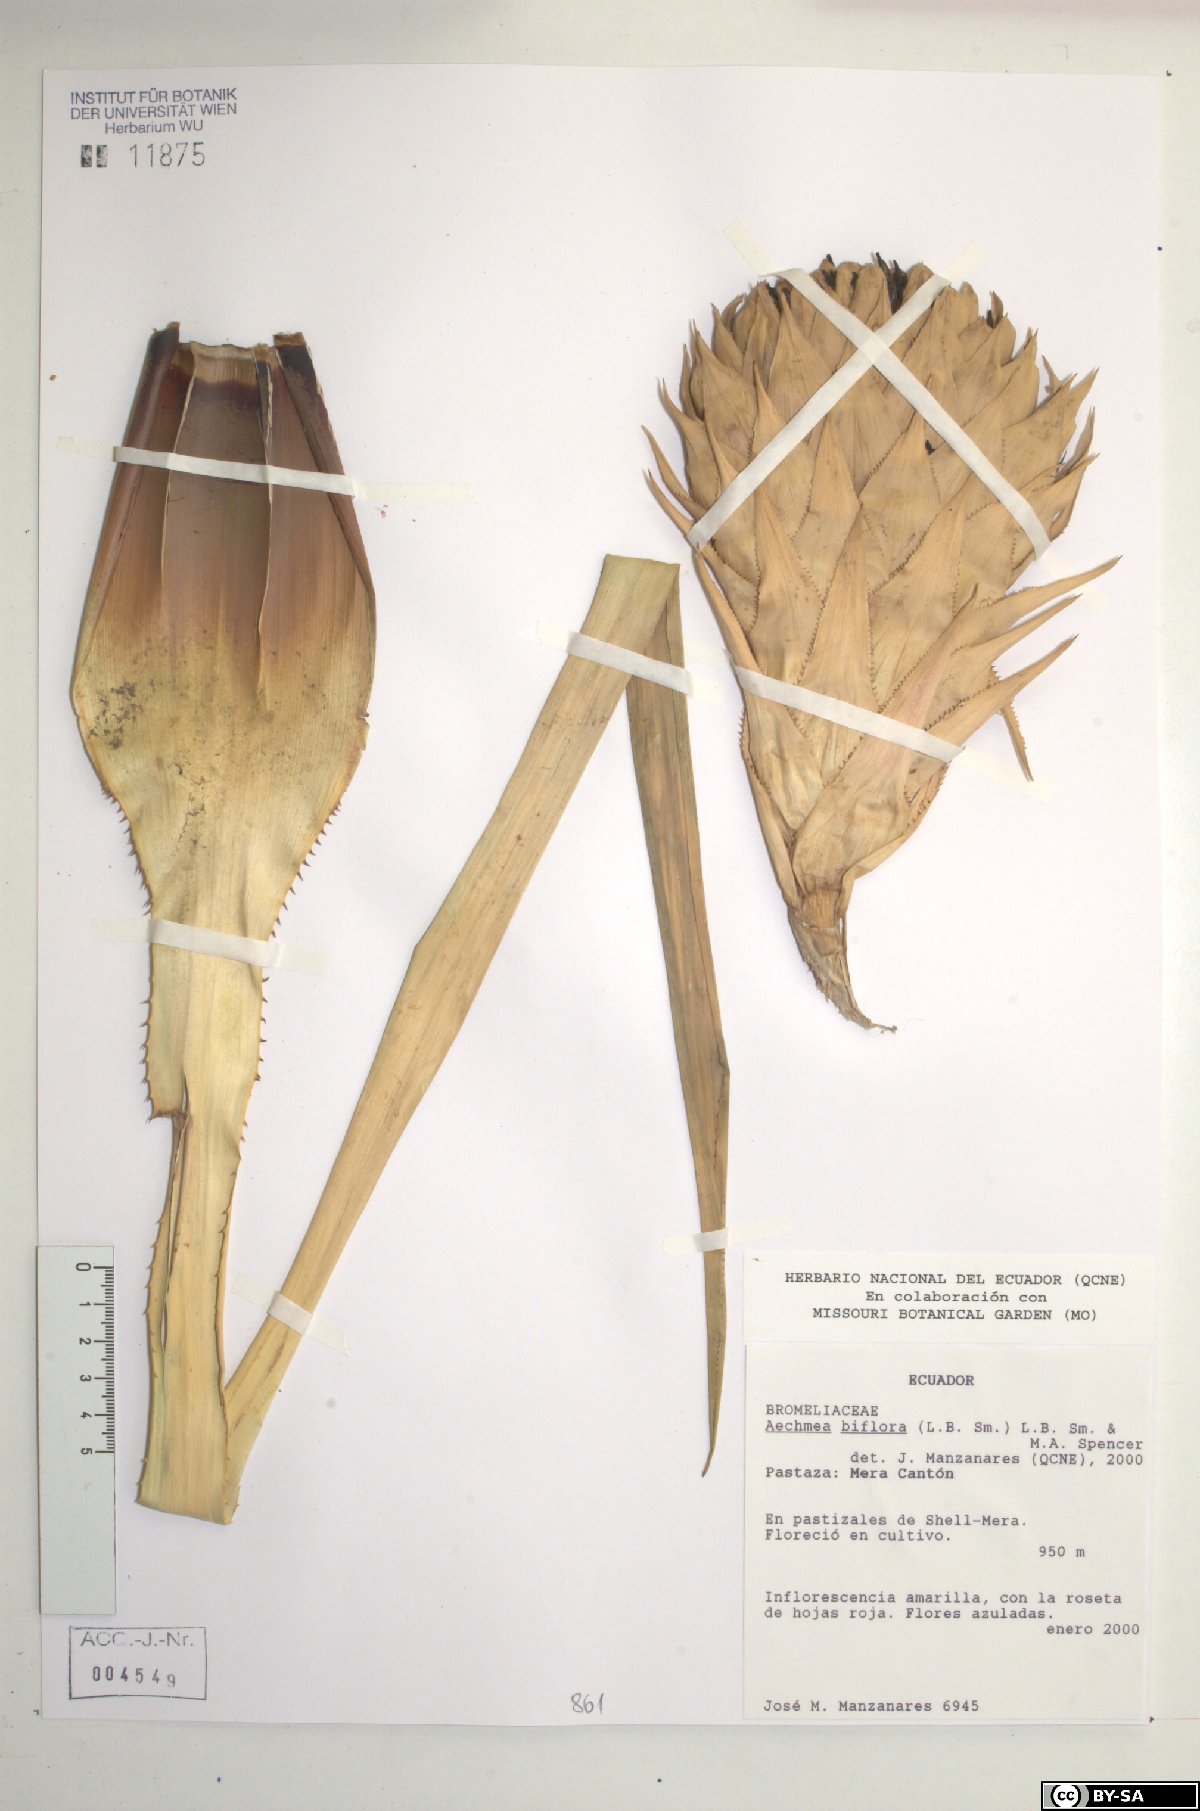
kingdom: Plantae
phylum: Tracheophyta
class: Liliopsida
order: Poales
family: Bromeliaceae
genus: Aechmea
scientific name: Aechmea biflora
